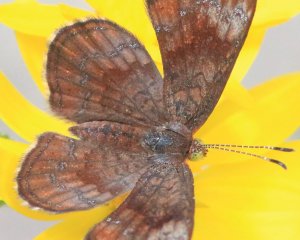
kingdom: Animalia
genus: Calephelis
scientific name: Calephelis nemesis
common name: Fatal Metalmark
